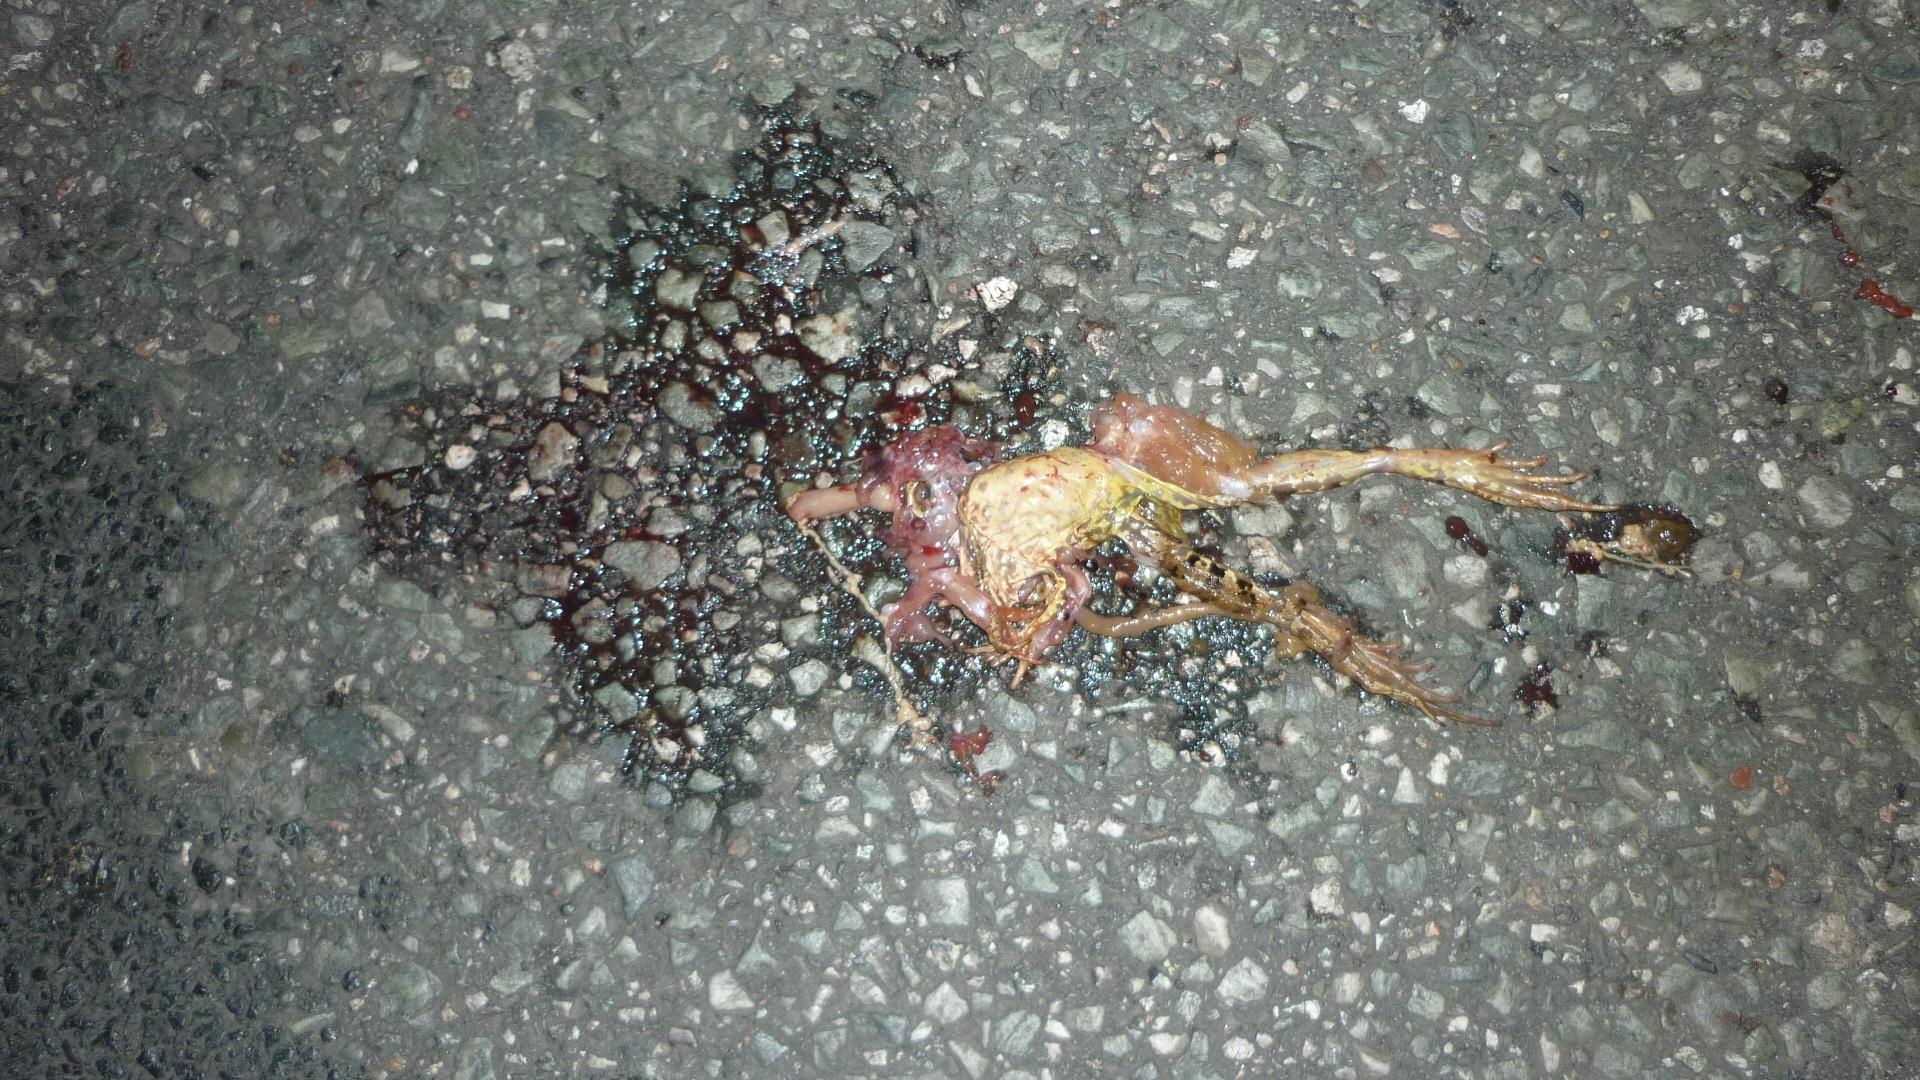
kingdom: Animalia
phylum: Chordata
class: Amphibia
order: Anura
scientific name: Anura
